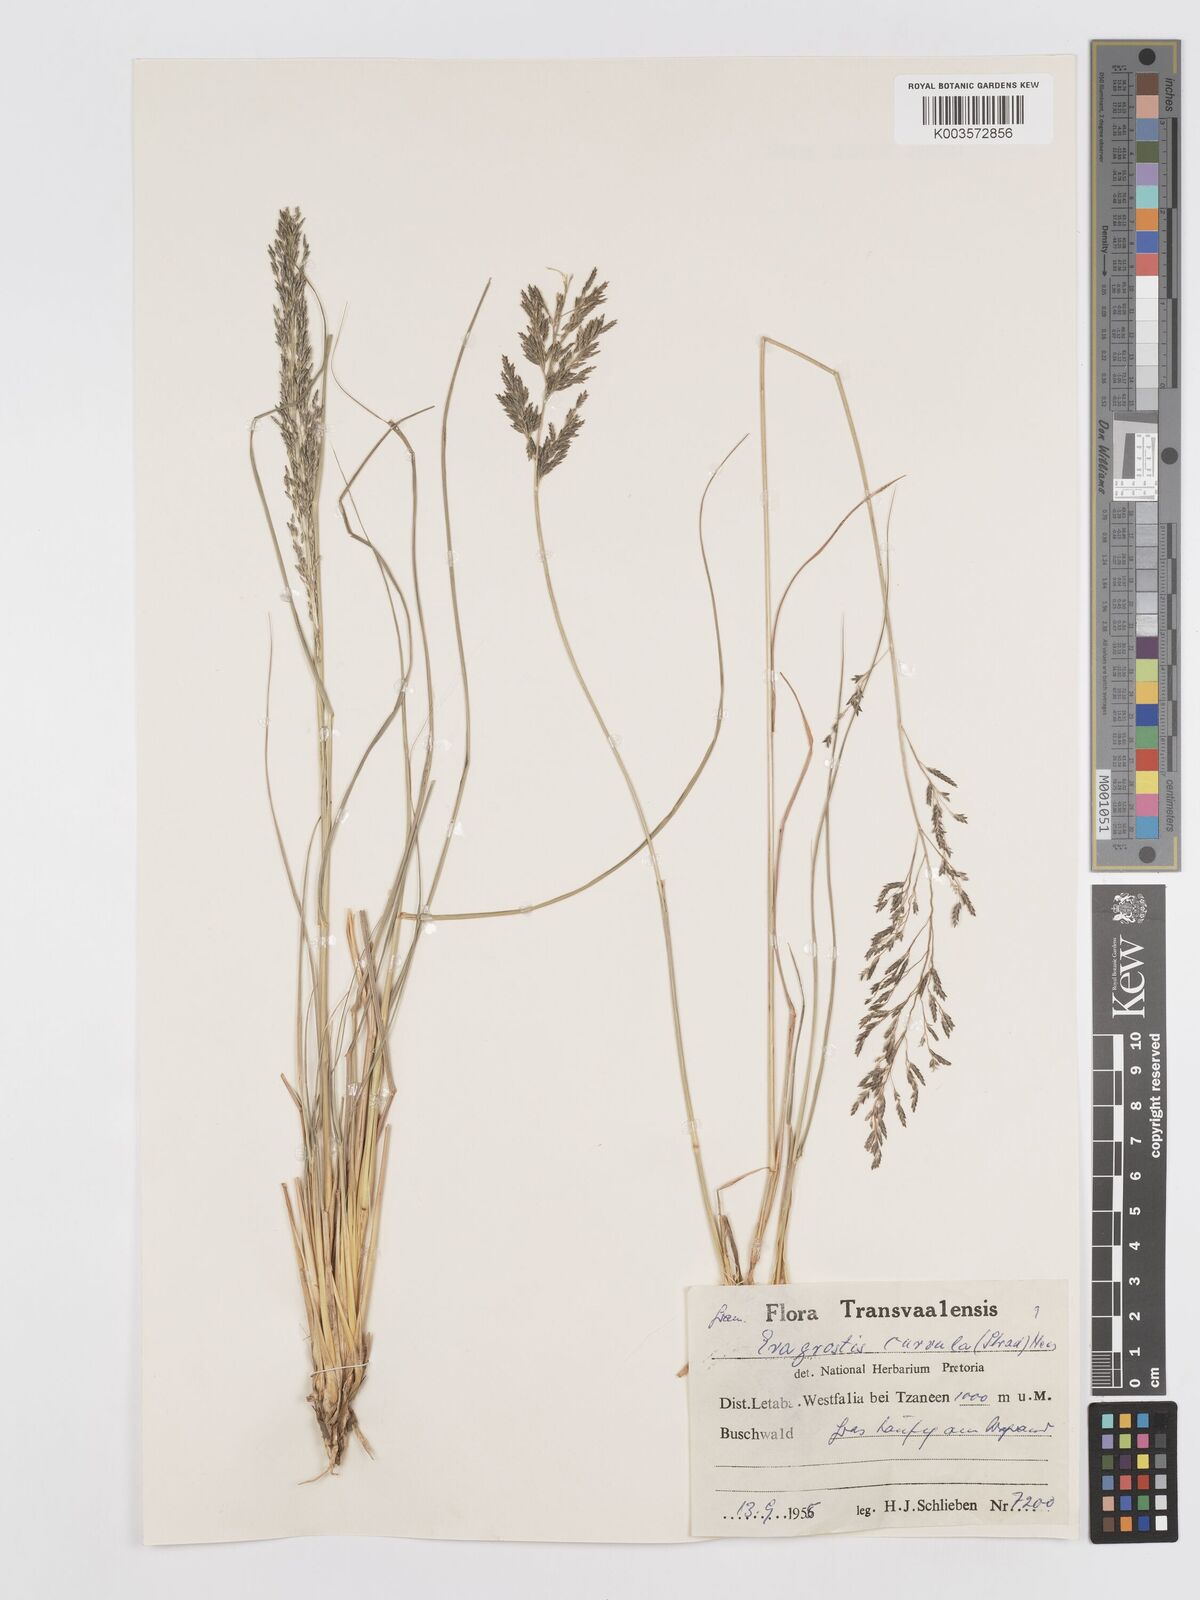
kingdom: Plantae
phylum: Tracheophyta
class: Liliopsida
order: Poales
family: Poaceae
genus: Eragrostis
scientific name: Eragrostis curvula
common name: African love-grass
